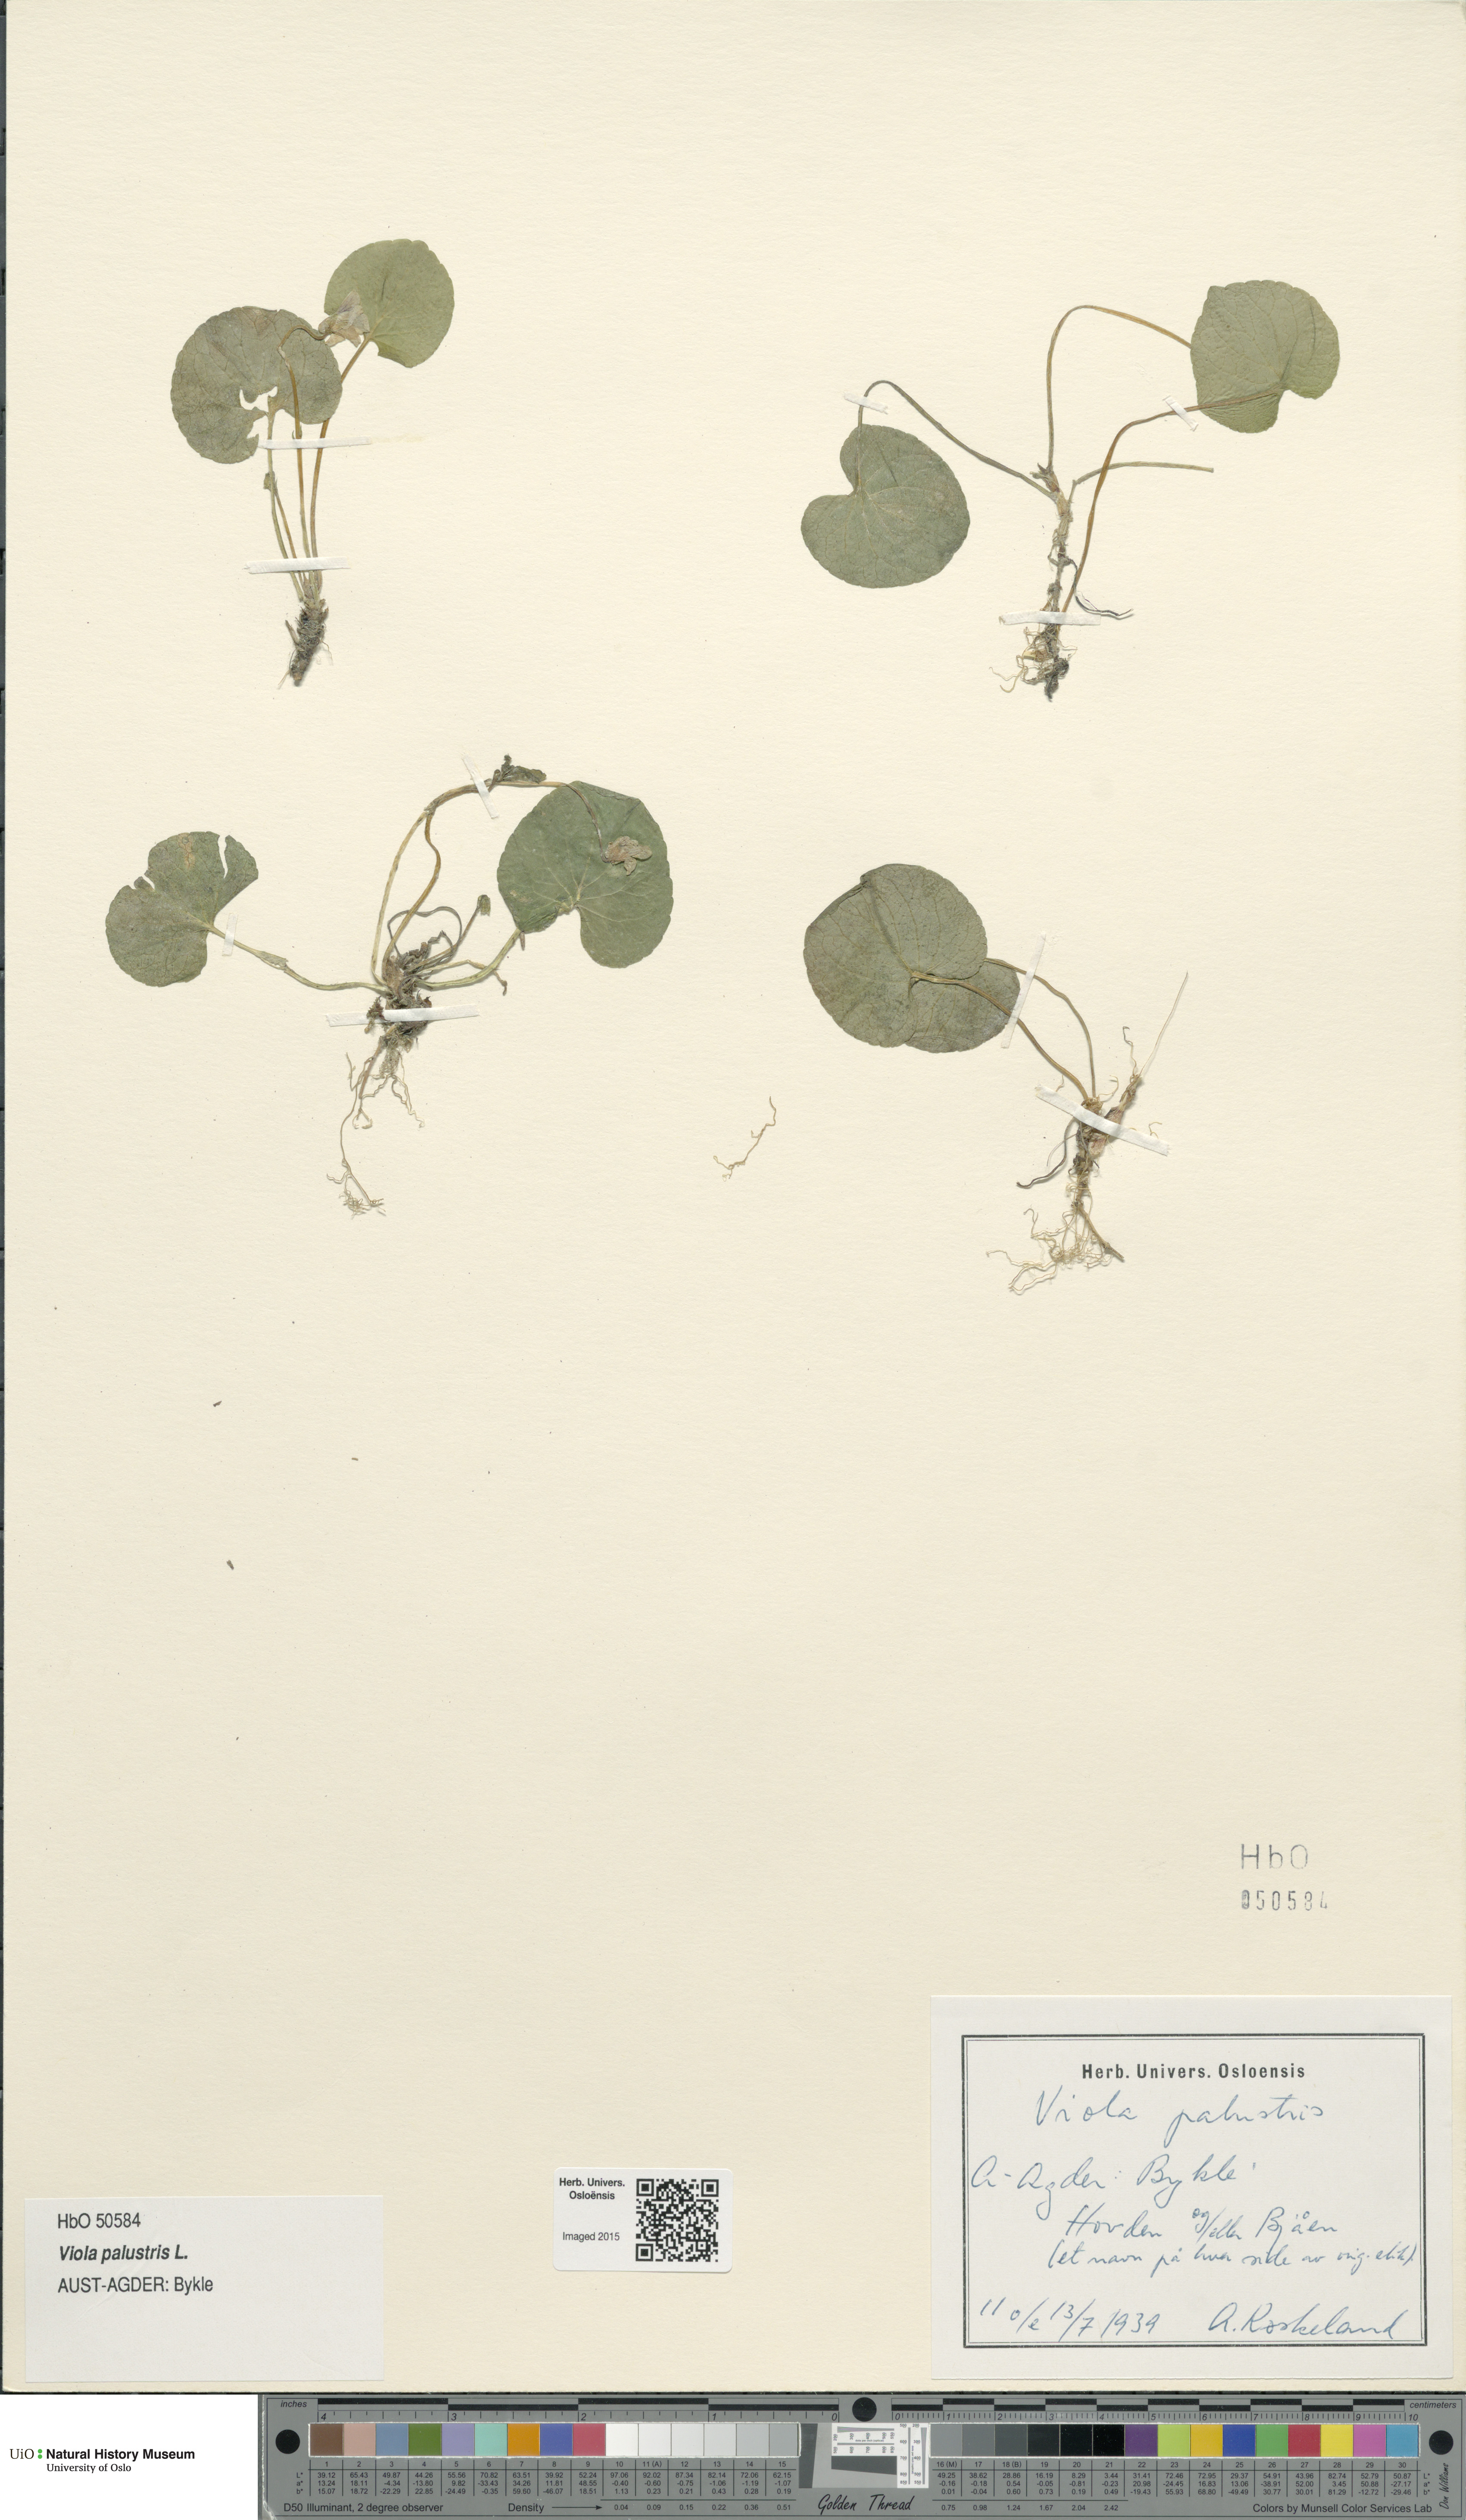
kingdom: Plantae
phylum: Tracheophyta
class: Magnoliopsida
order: Malpighiales
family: Violaceae
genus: Viola
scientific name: Viola palustris
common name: Marsh violet
